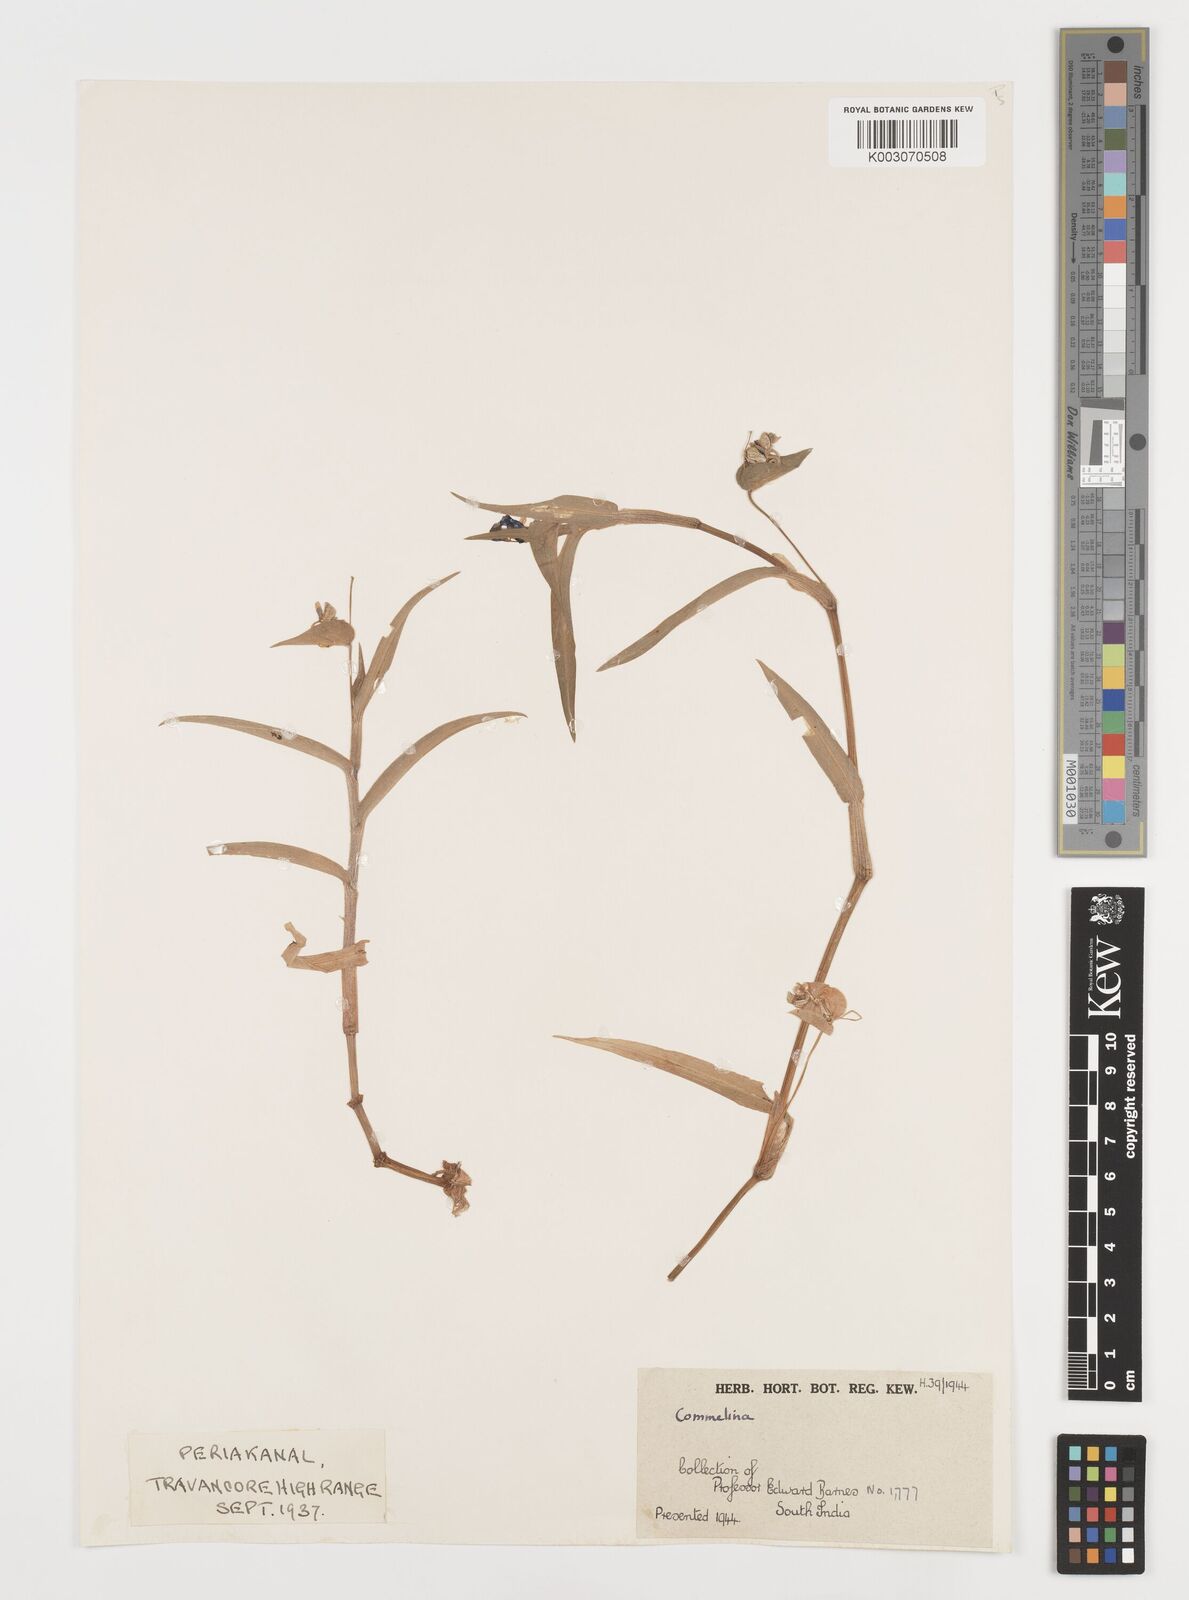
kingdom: Plantae
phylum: Tracheophyta
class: Liliopsida
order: Commelinales
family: Commelinaceae
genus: Commelina
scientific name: Commelina
